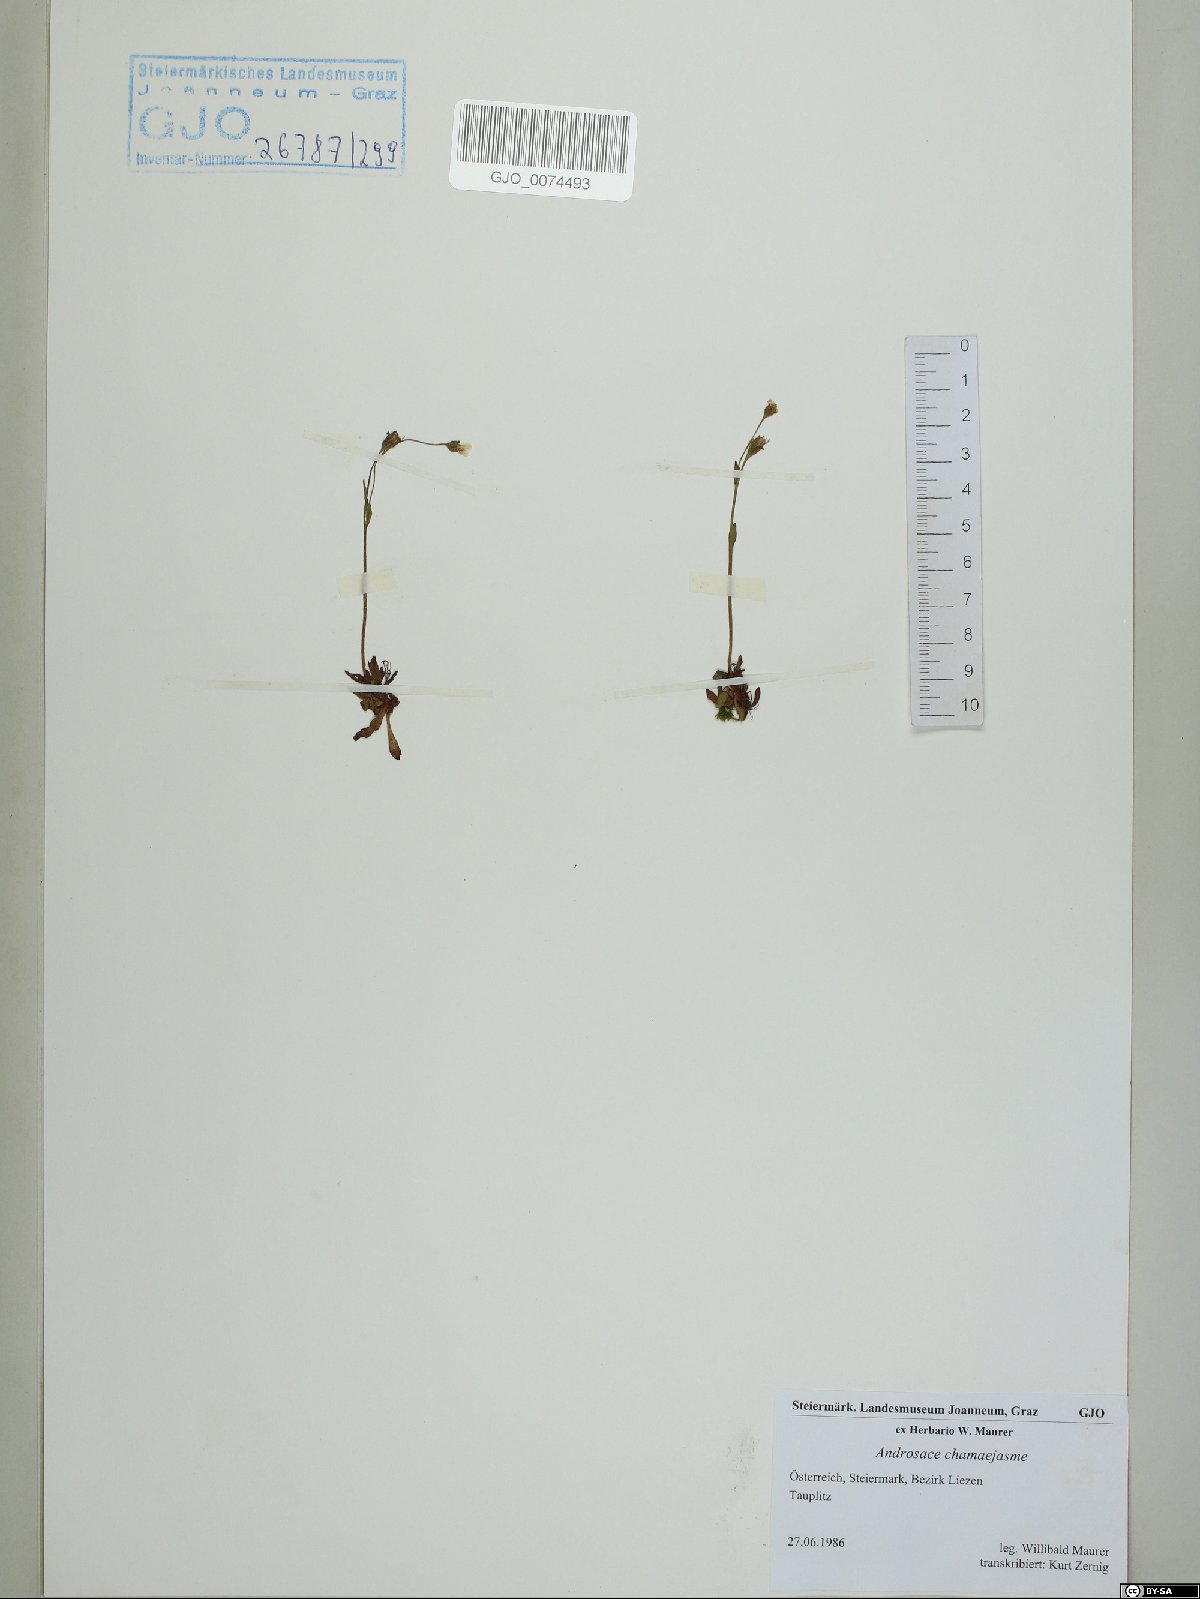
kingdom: Plantae
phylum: Tracheophyta
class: Magnoliopsida
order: Ericales
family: Primulaceae
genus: Androsace
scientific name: Androsace chamaejasme
